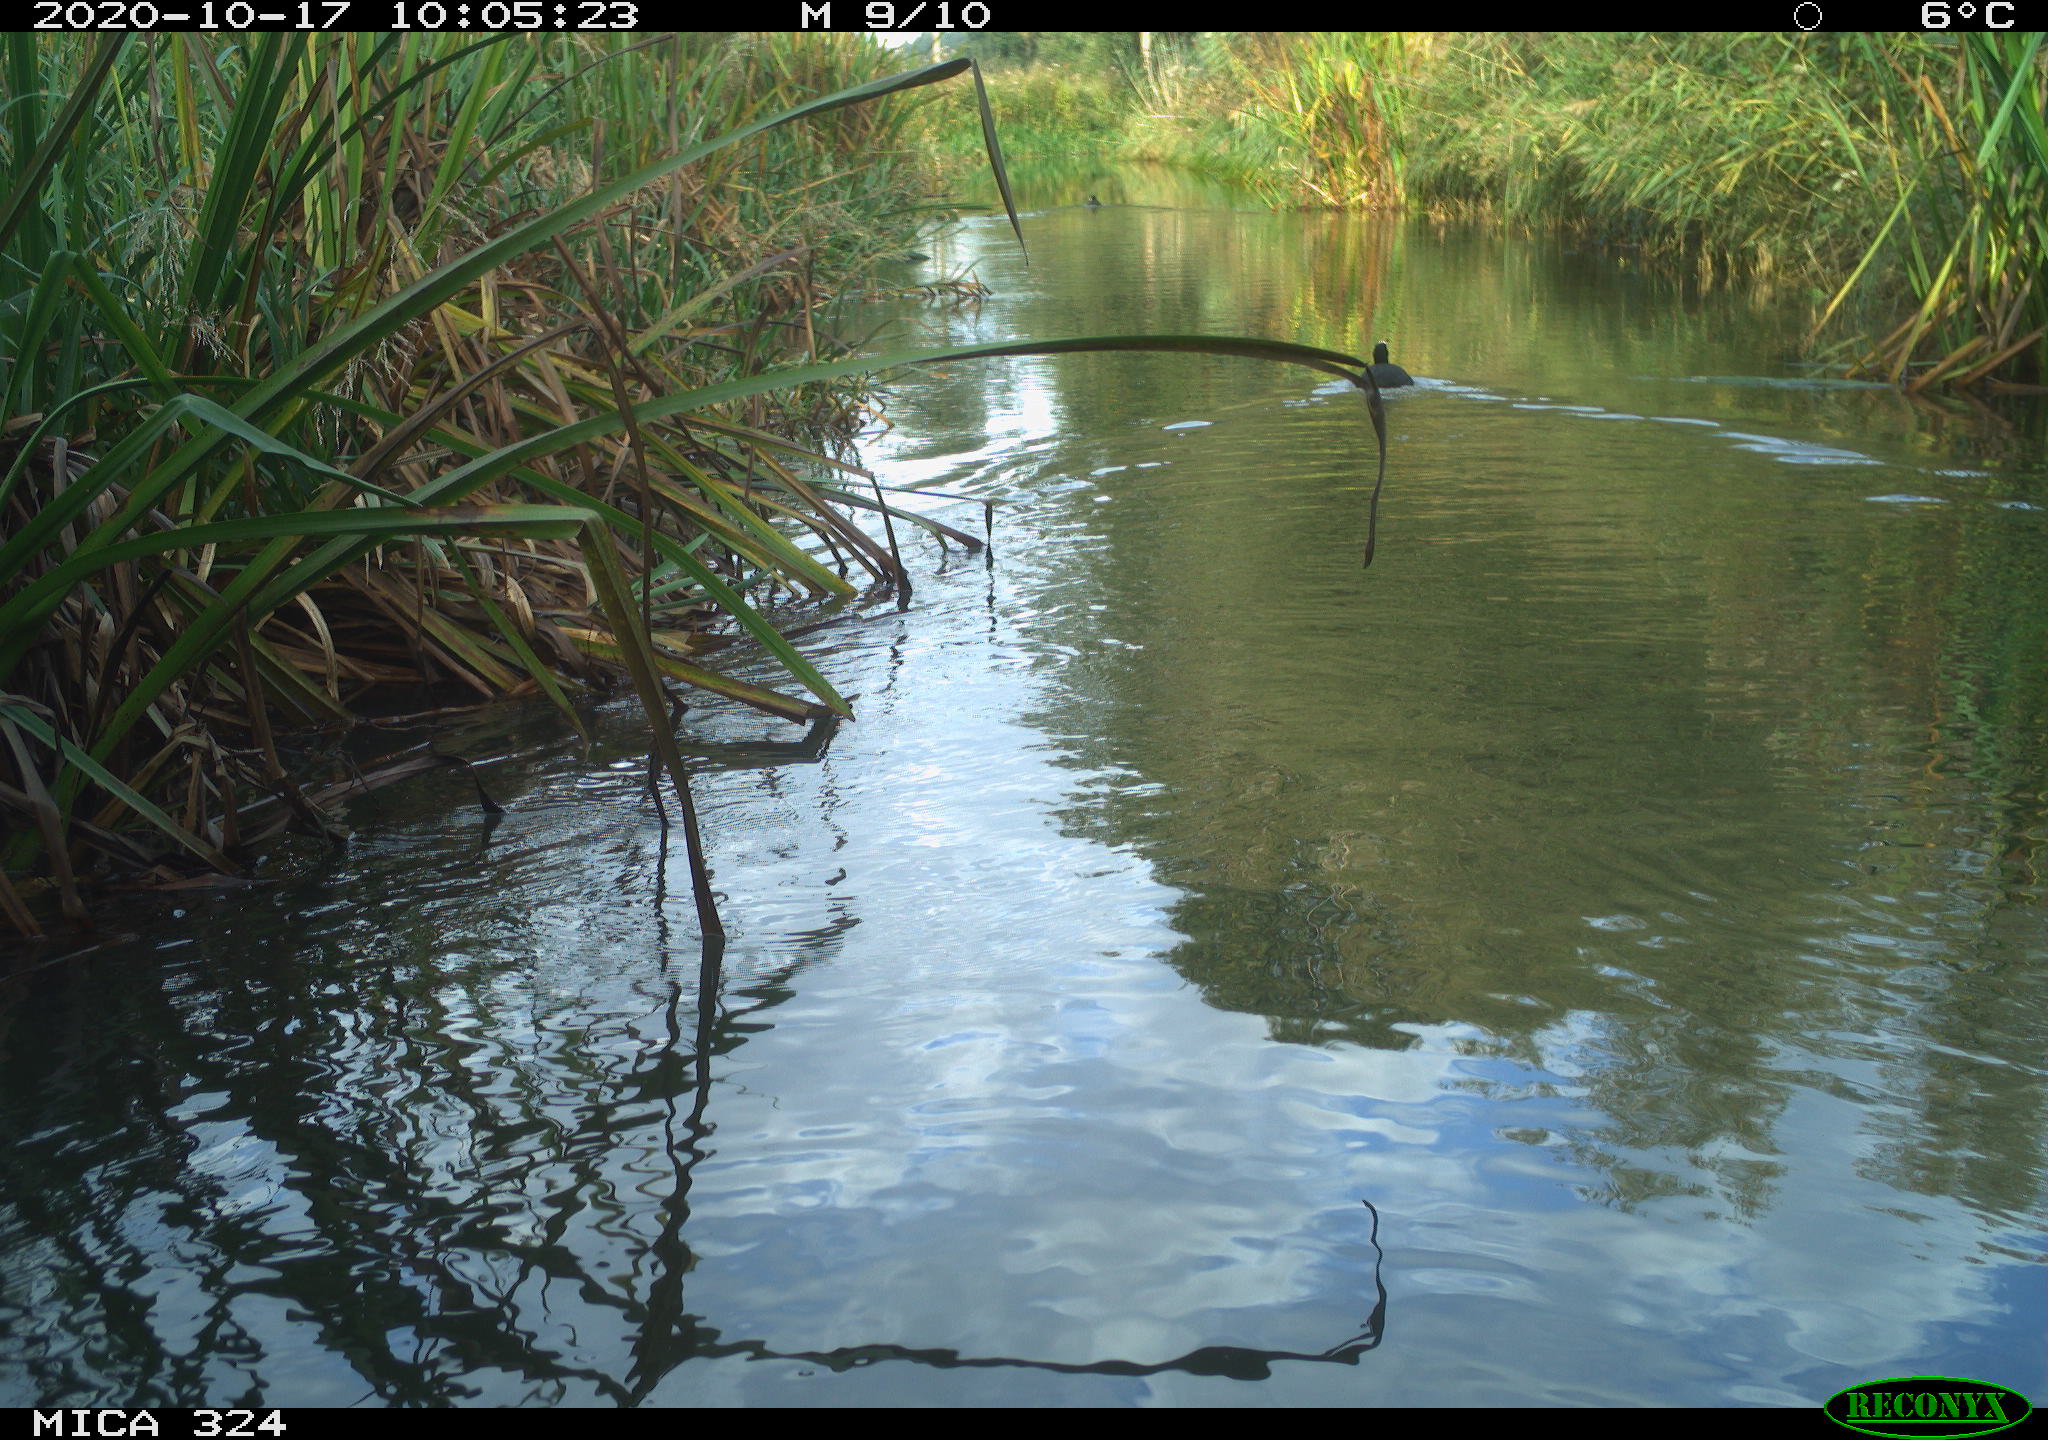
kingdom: Animalia
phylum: Chordata
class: Aves
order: Gruiformes
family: Rallidae
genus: Fulica
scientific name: Fulica atra
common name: Eurasian coot
